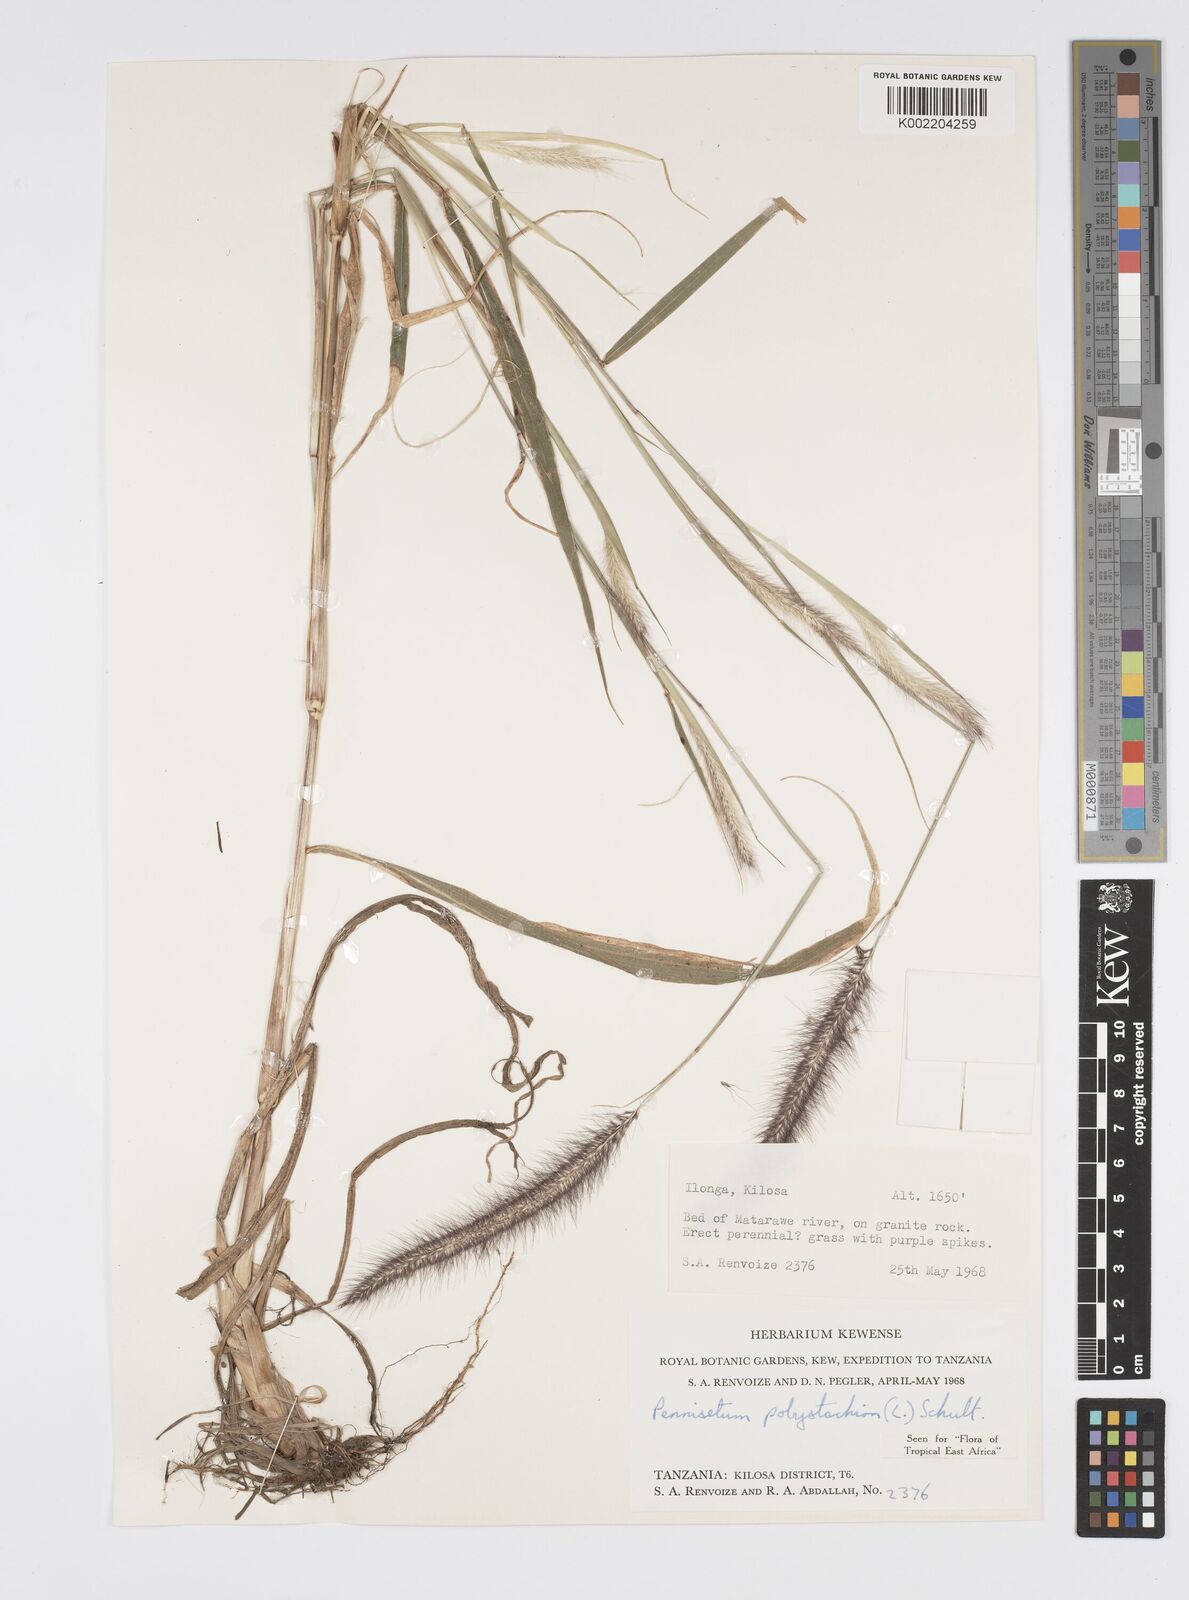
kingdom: Plantae
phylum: Tracheophyta
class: Liliopsida
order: Poales
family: Poaceae
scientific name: Poaceae
